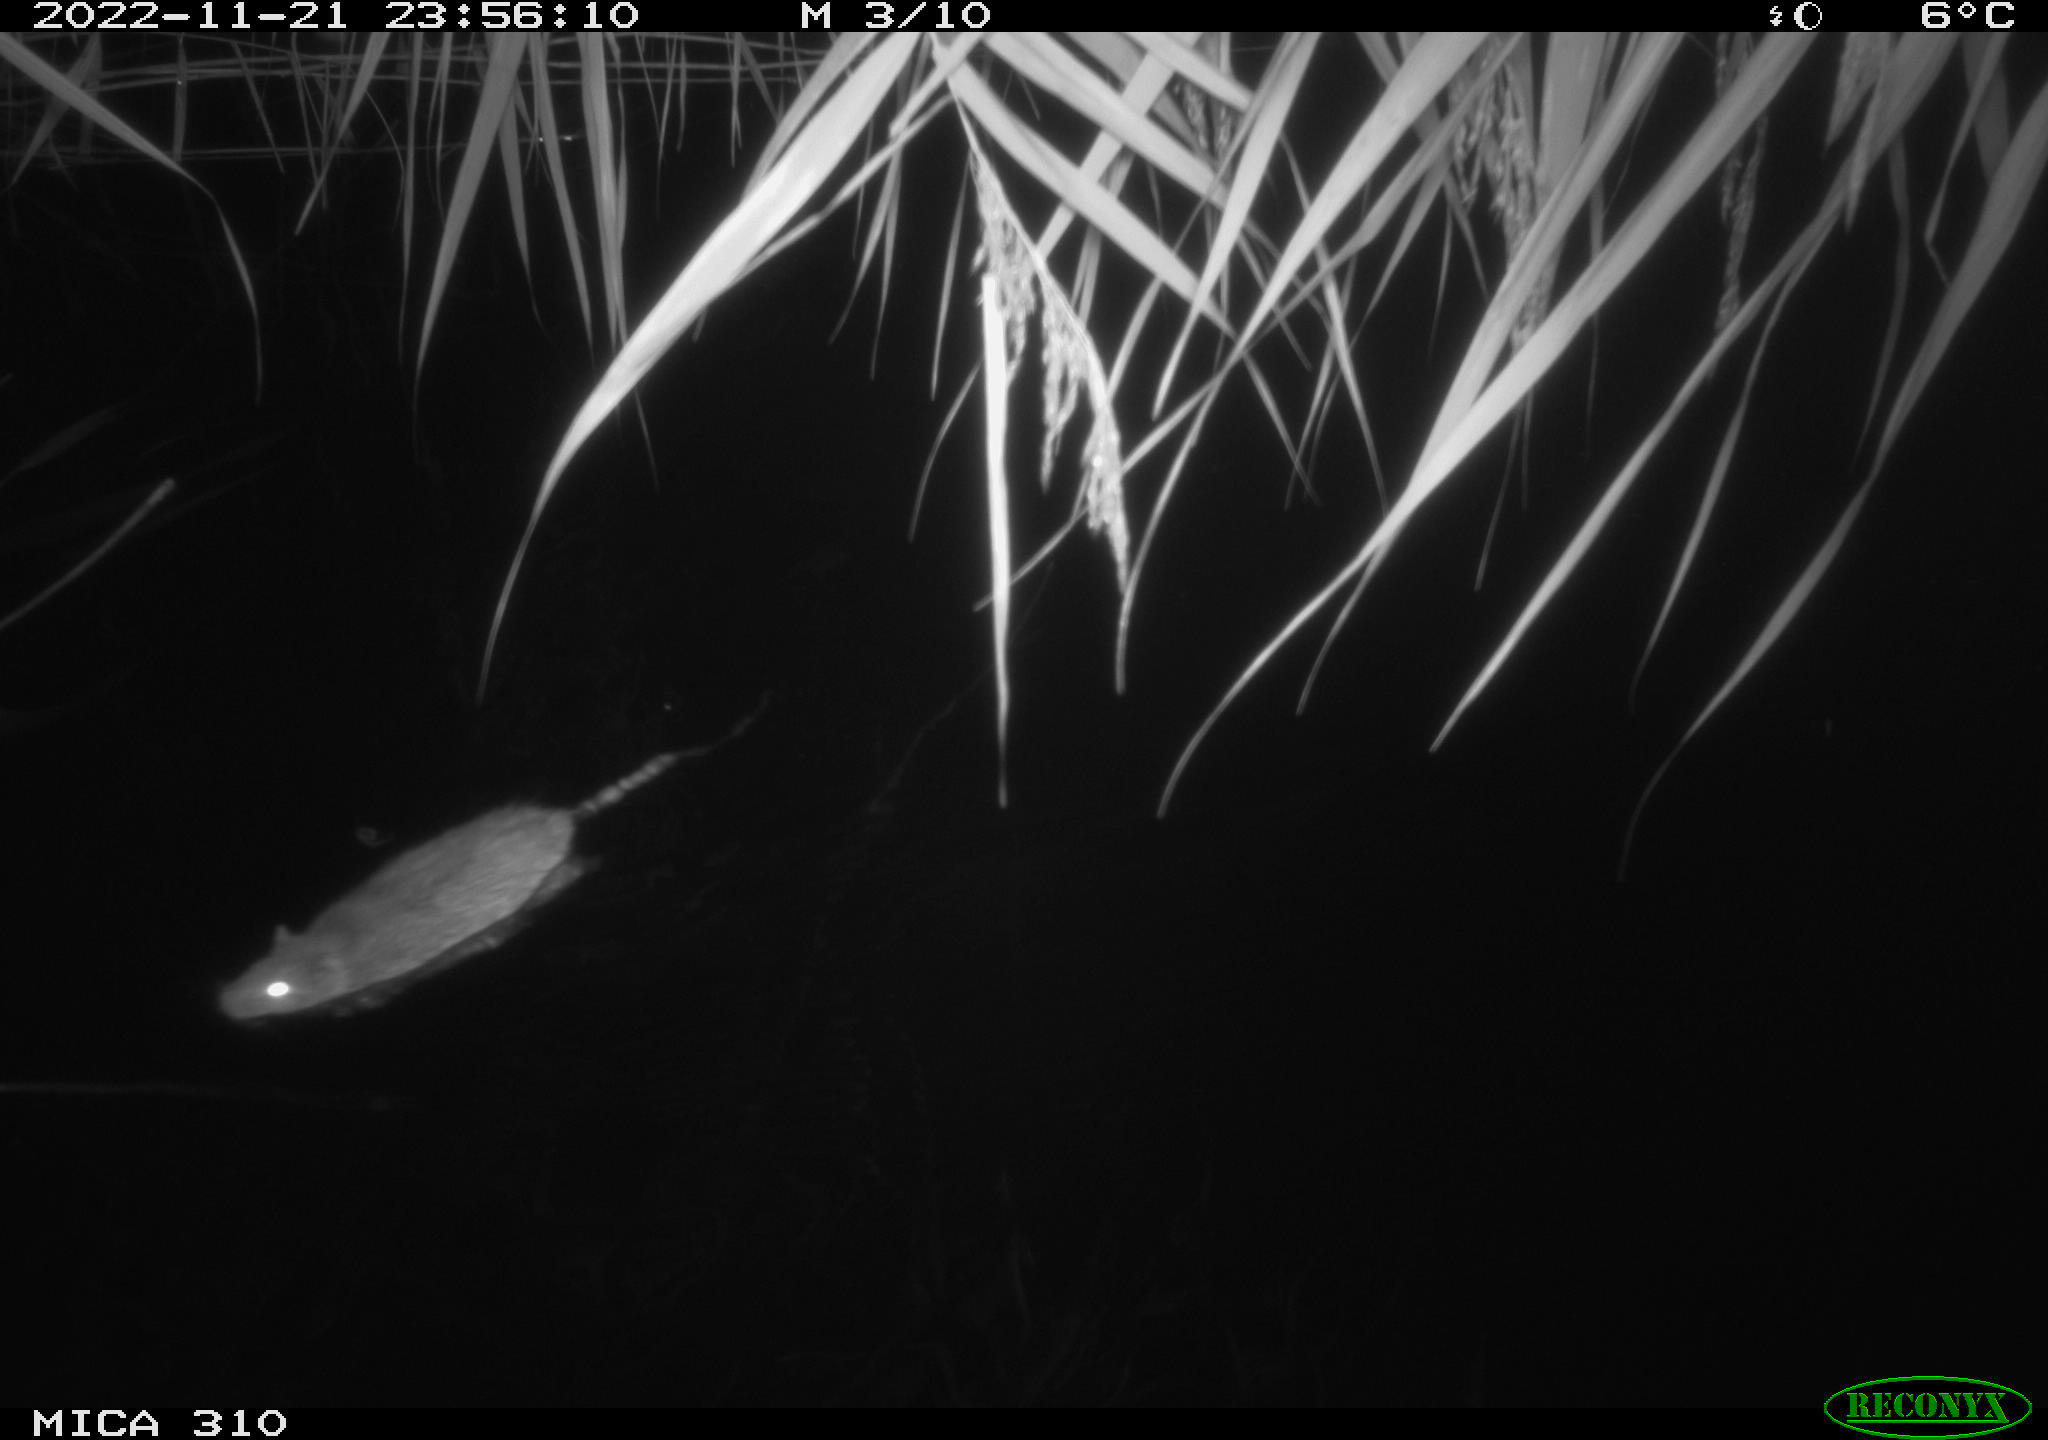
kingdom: Animalia
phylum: Chordata
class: Mammalia
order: Rodentia
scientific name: Rodentia
